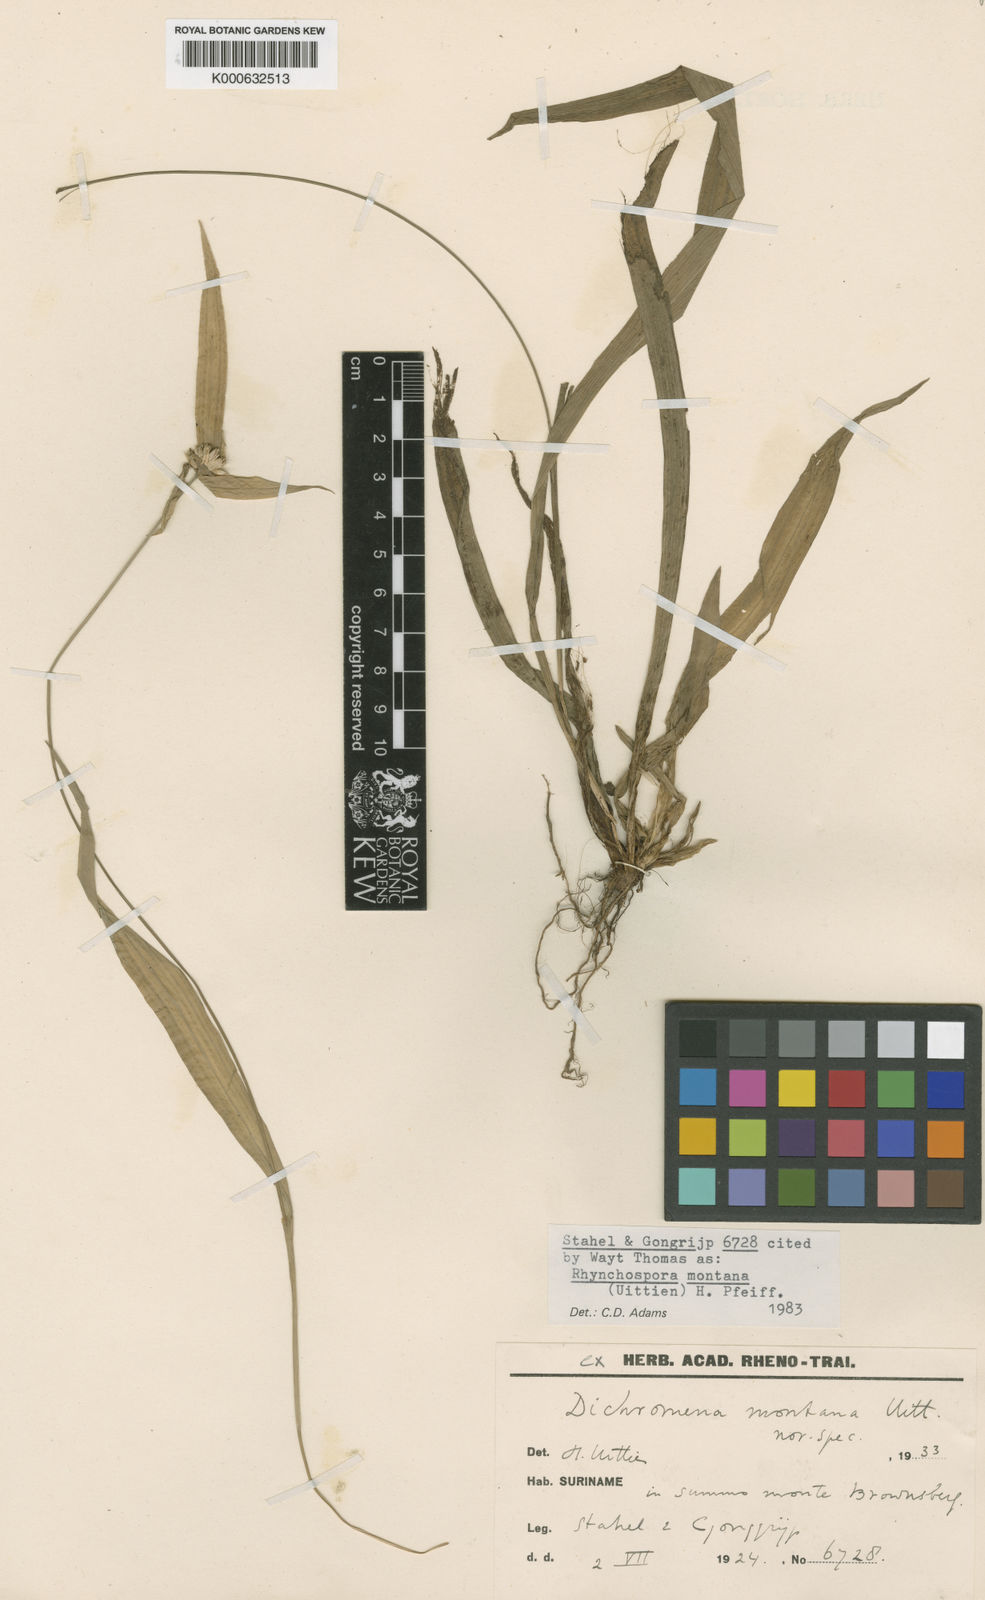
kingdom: Plantae
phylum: Tracheophyta
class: Liliopsida
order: Poales
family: Cyperaceae
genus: Rhynchospora
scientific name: Rhynchospora montana
